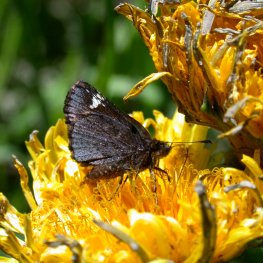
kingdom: Animalia
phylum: Arthropoda
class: Insecta
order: Lepidoptera
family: Hesperiidae
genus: Mastor
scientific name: Mastor vialis
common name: Common Roadside-Skipper
